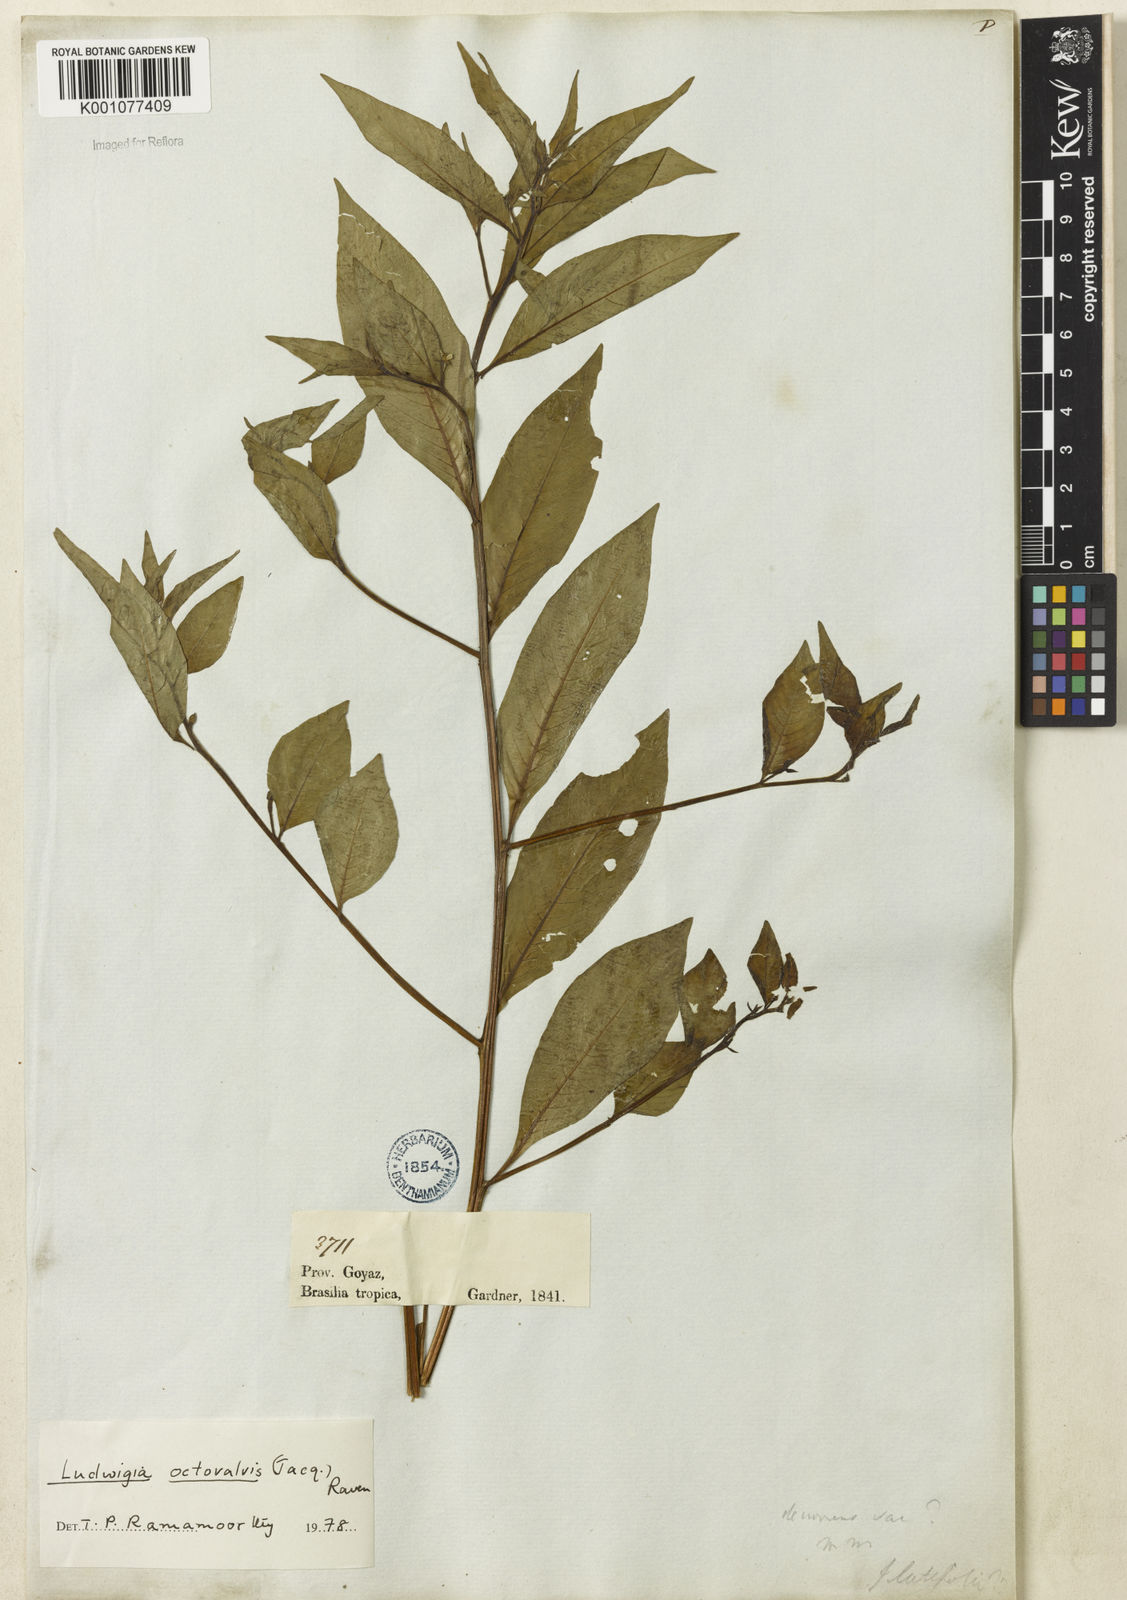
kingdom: Plantae
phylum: Tracheophyta
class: Magnoliopsida
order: Myrtales
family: Onagraceae
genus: Ludwigia
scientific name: Ludwigia octovalvis
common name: Water-primrose
